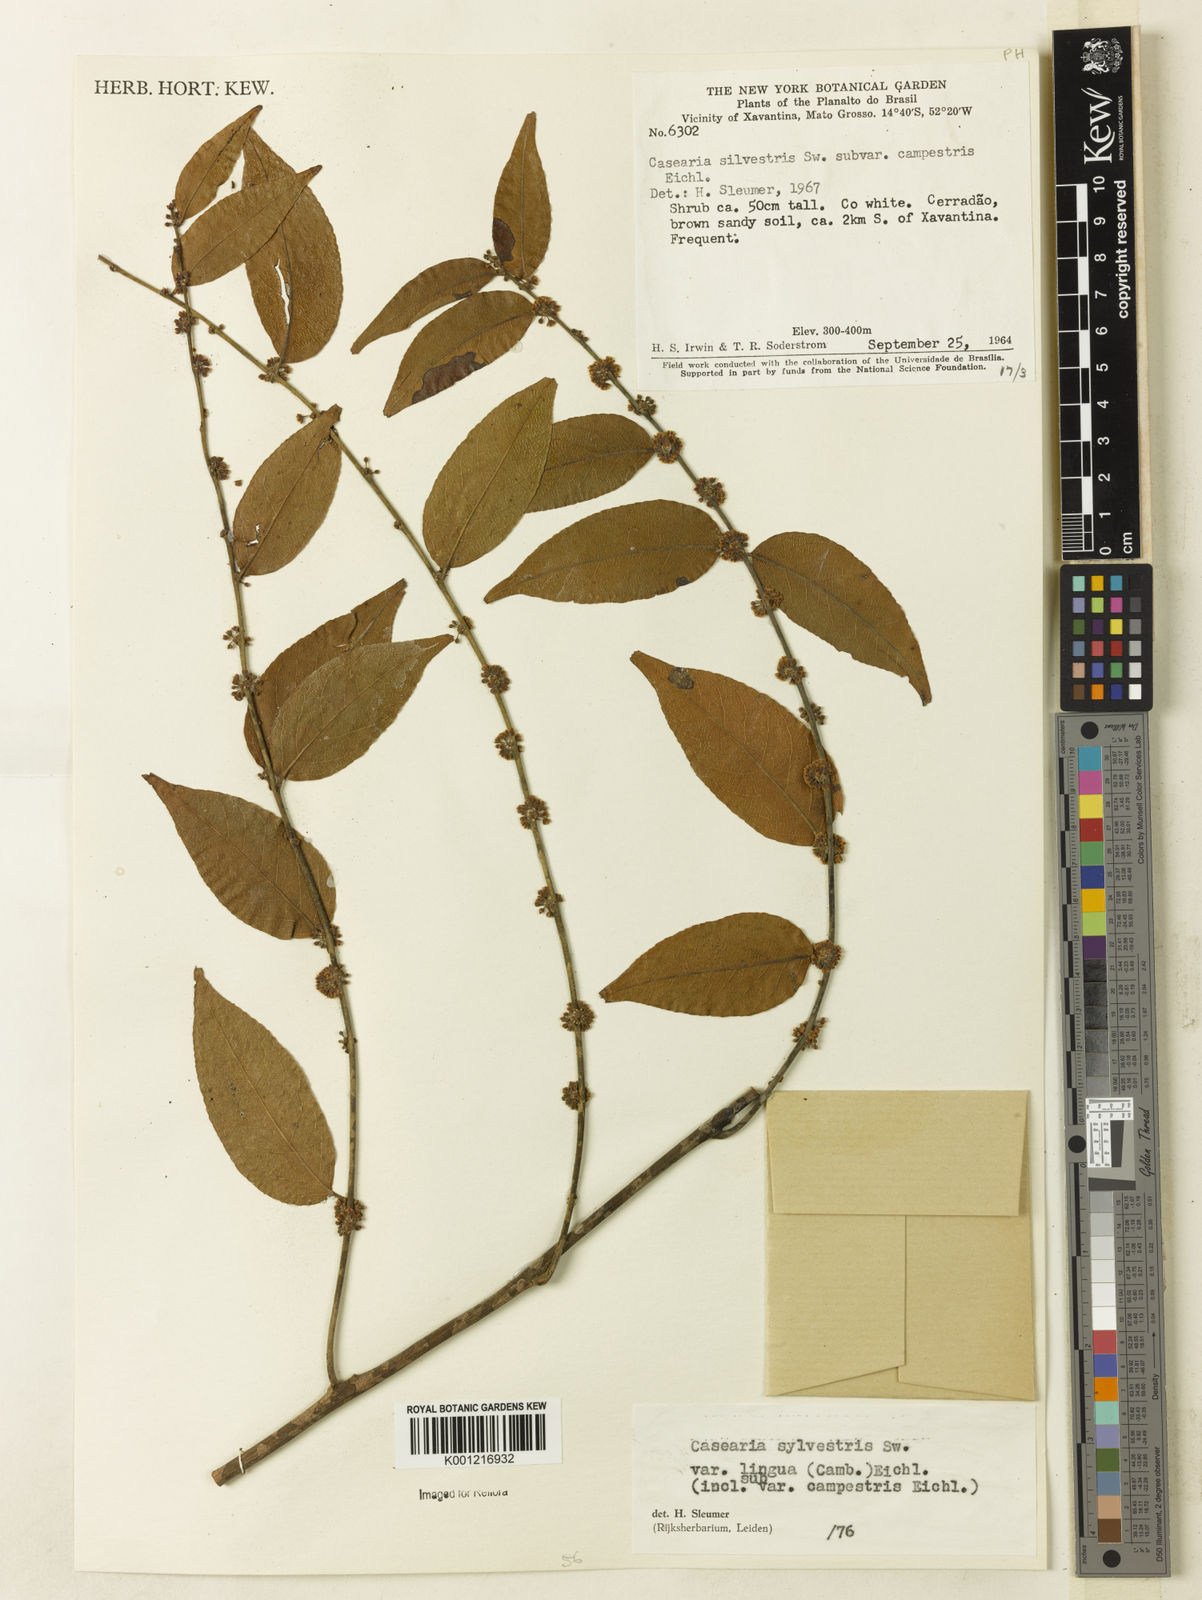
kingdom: Plantae
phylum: Tracheophyta
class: Magnoliopsida
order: Malpighiales
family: Salicaceae
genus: Casearia
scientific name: Casearia sylvestris
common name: Wild sage
